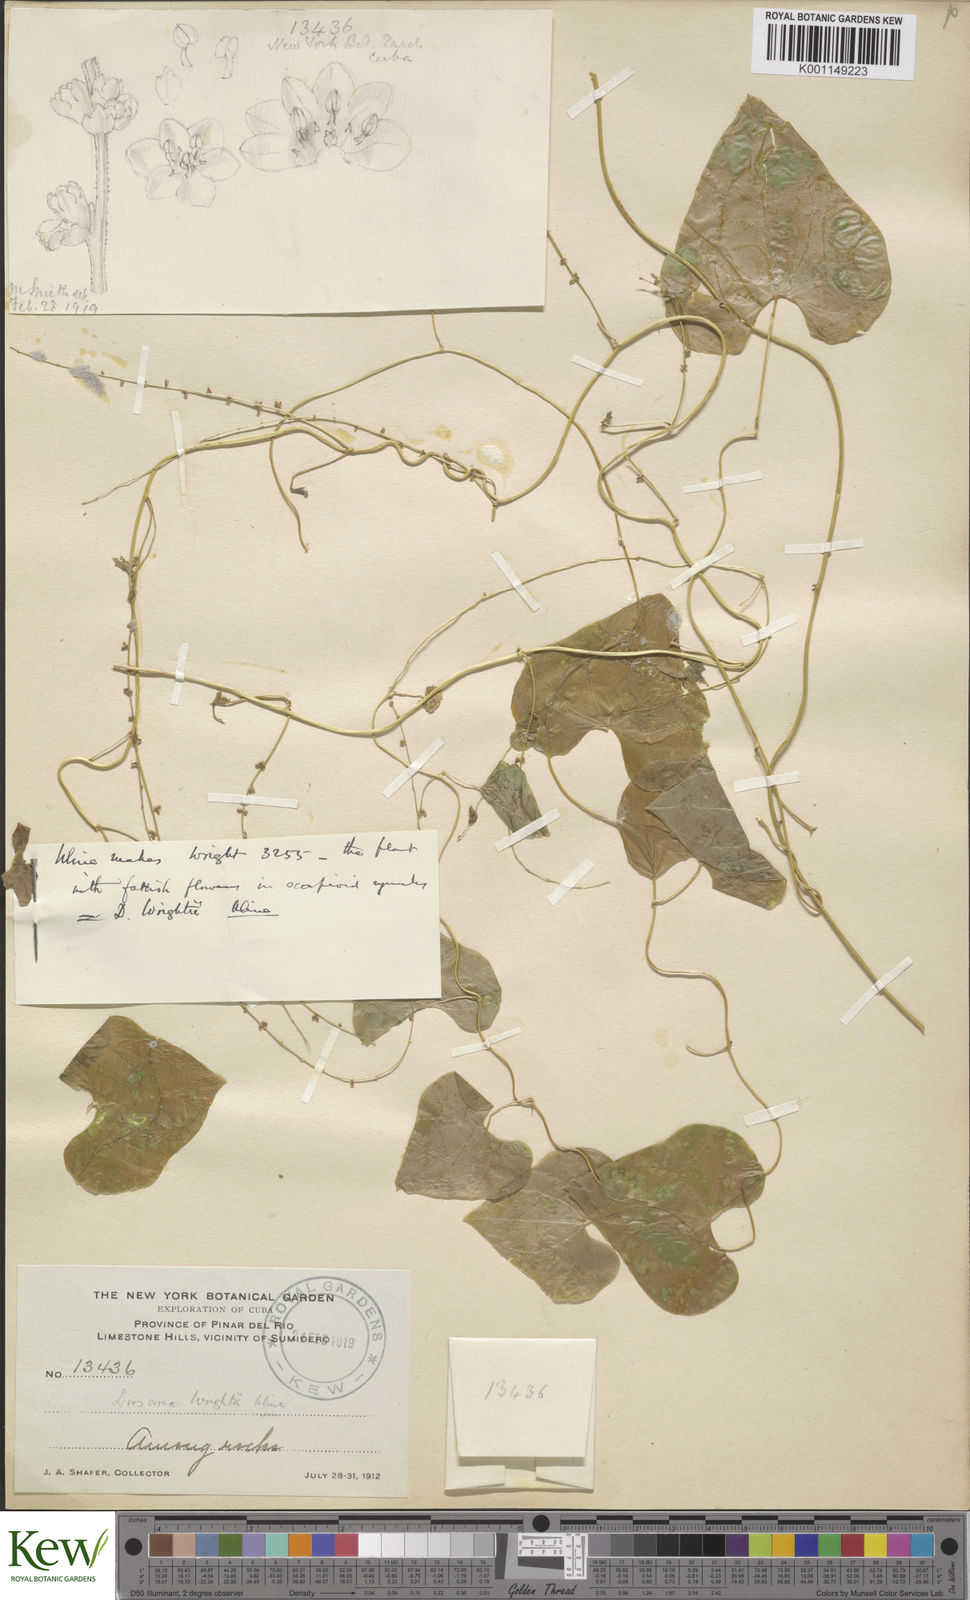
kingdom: Plantae
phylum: Tracheophyta
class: Liliopsida
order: Dioscoreales
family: Dioscoreaceae
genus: Dioscorea
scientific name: Dioscorea wrightii
